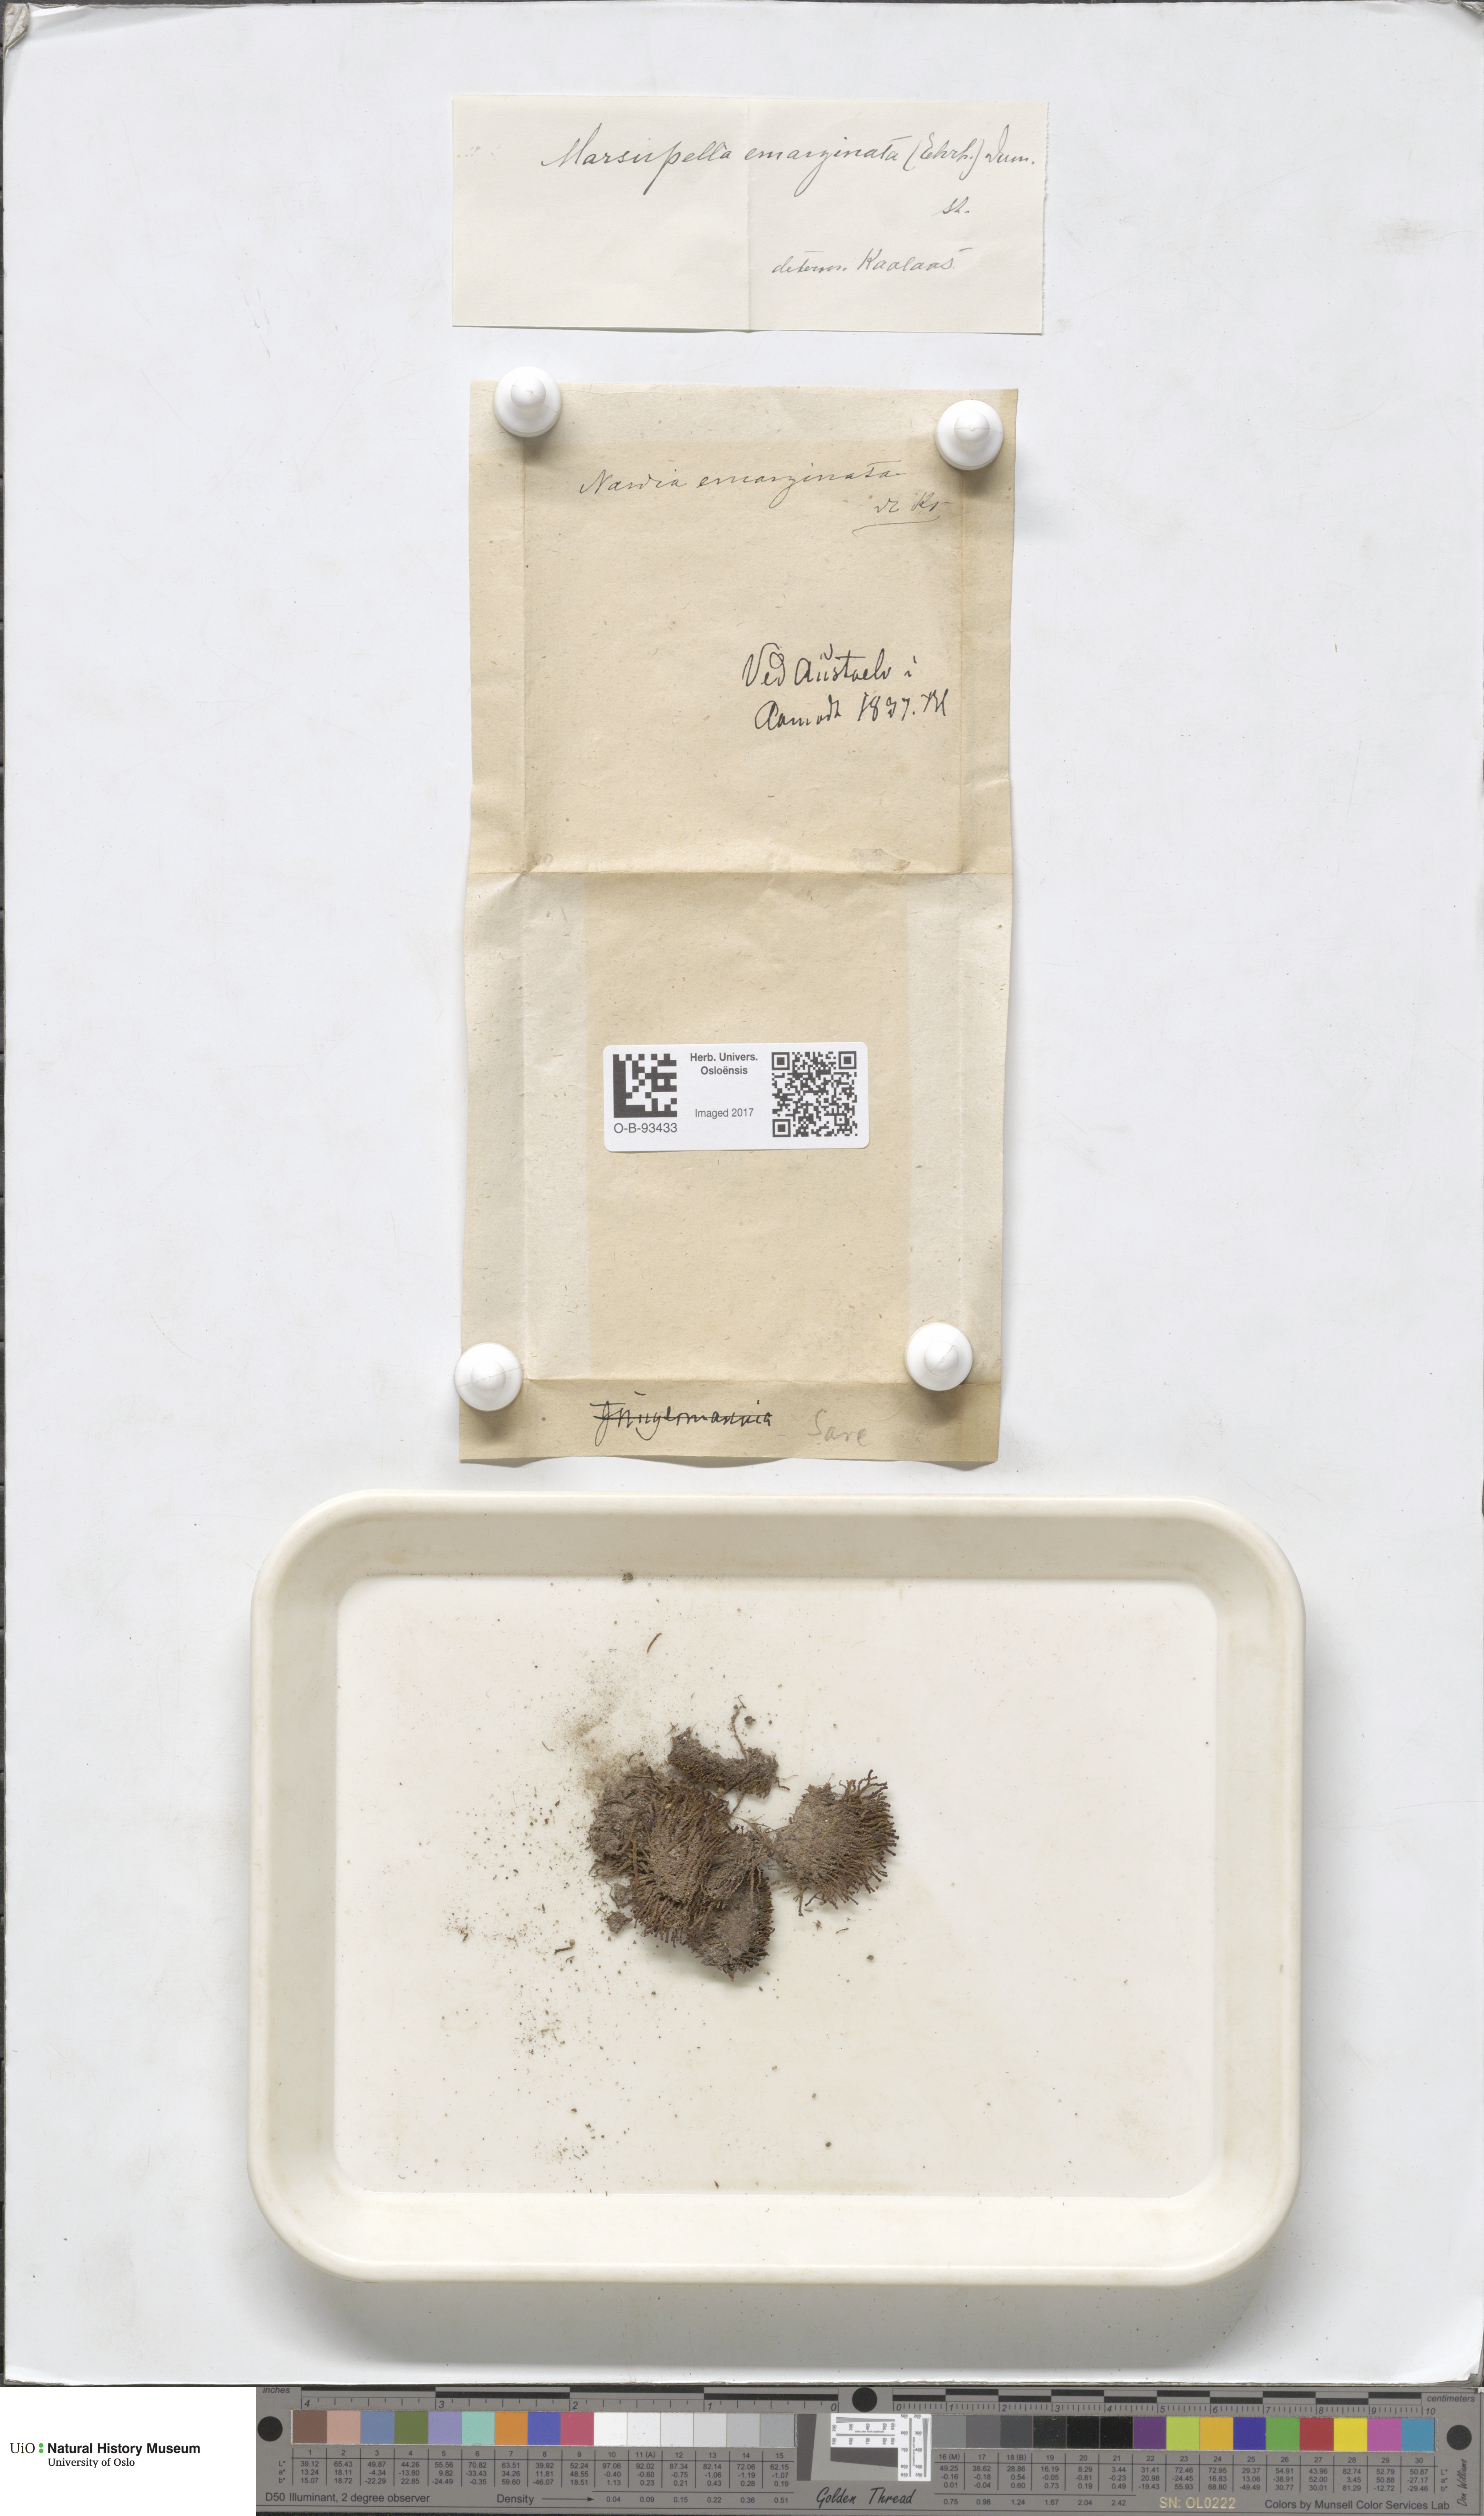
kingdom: Plantae
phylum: Marchantiophyta
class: Jungermanniopsida
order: Jungermanniales
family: Gymnomitriaceae
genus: Gymnomitrion
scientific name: Gymnomitrion brevissimum
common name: Snow rustwort
